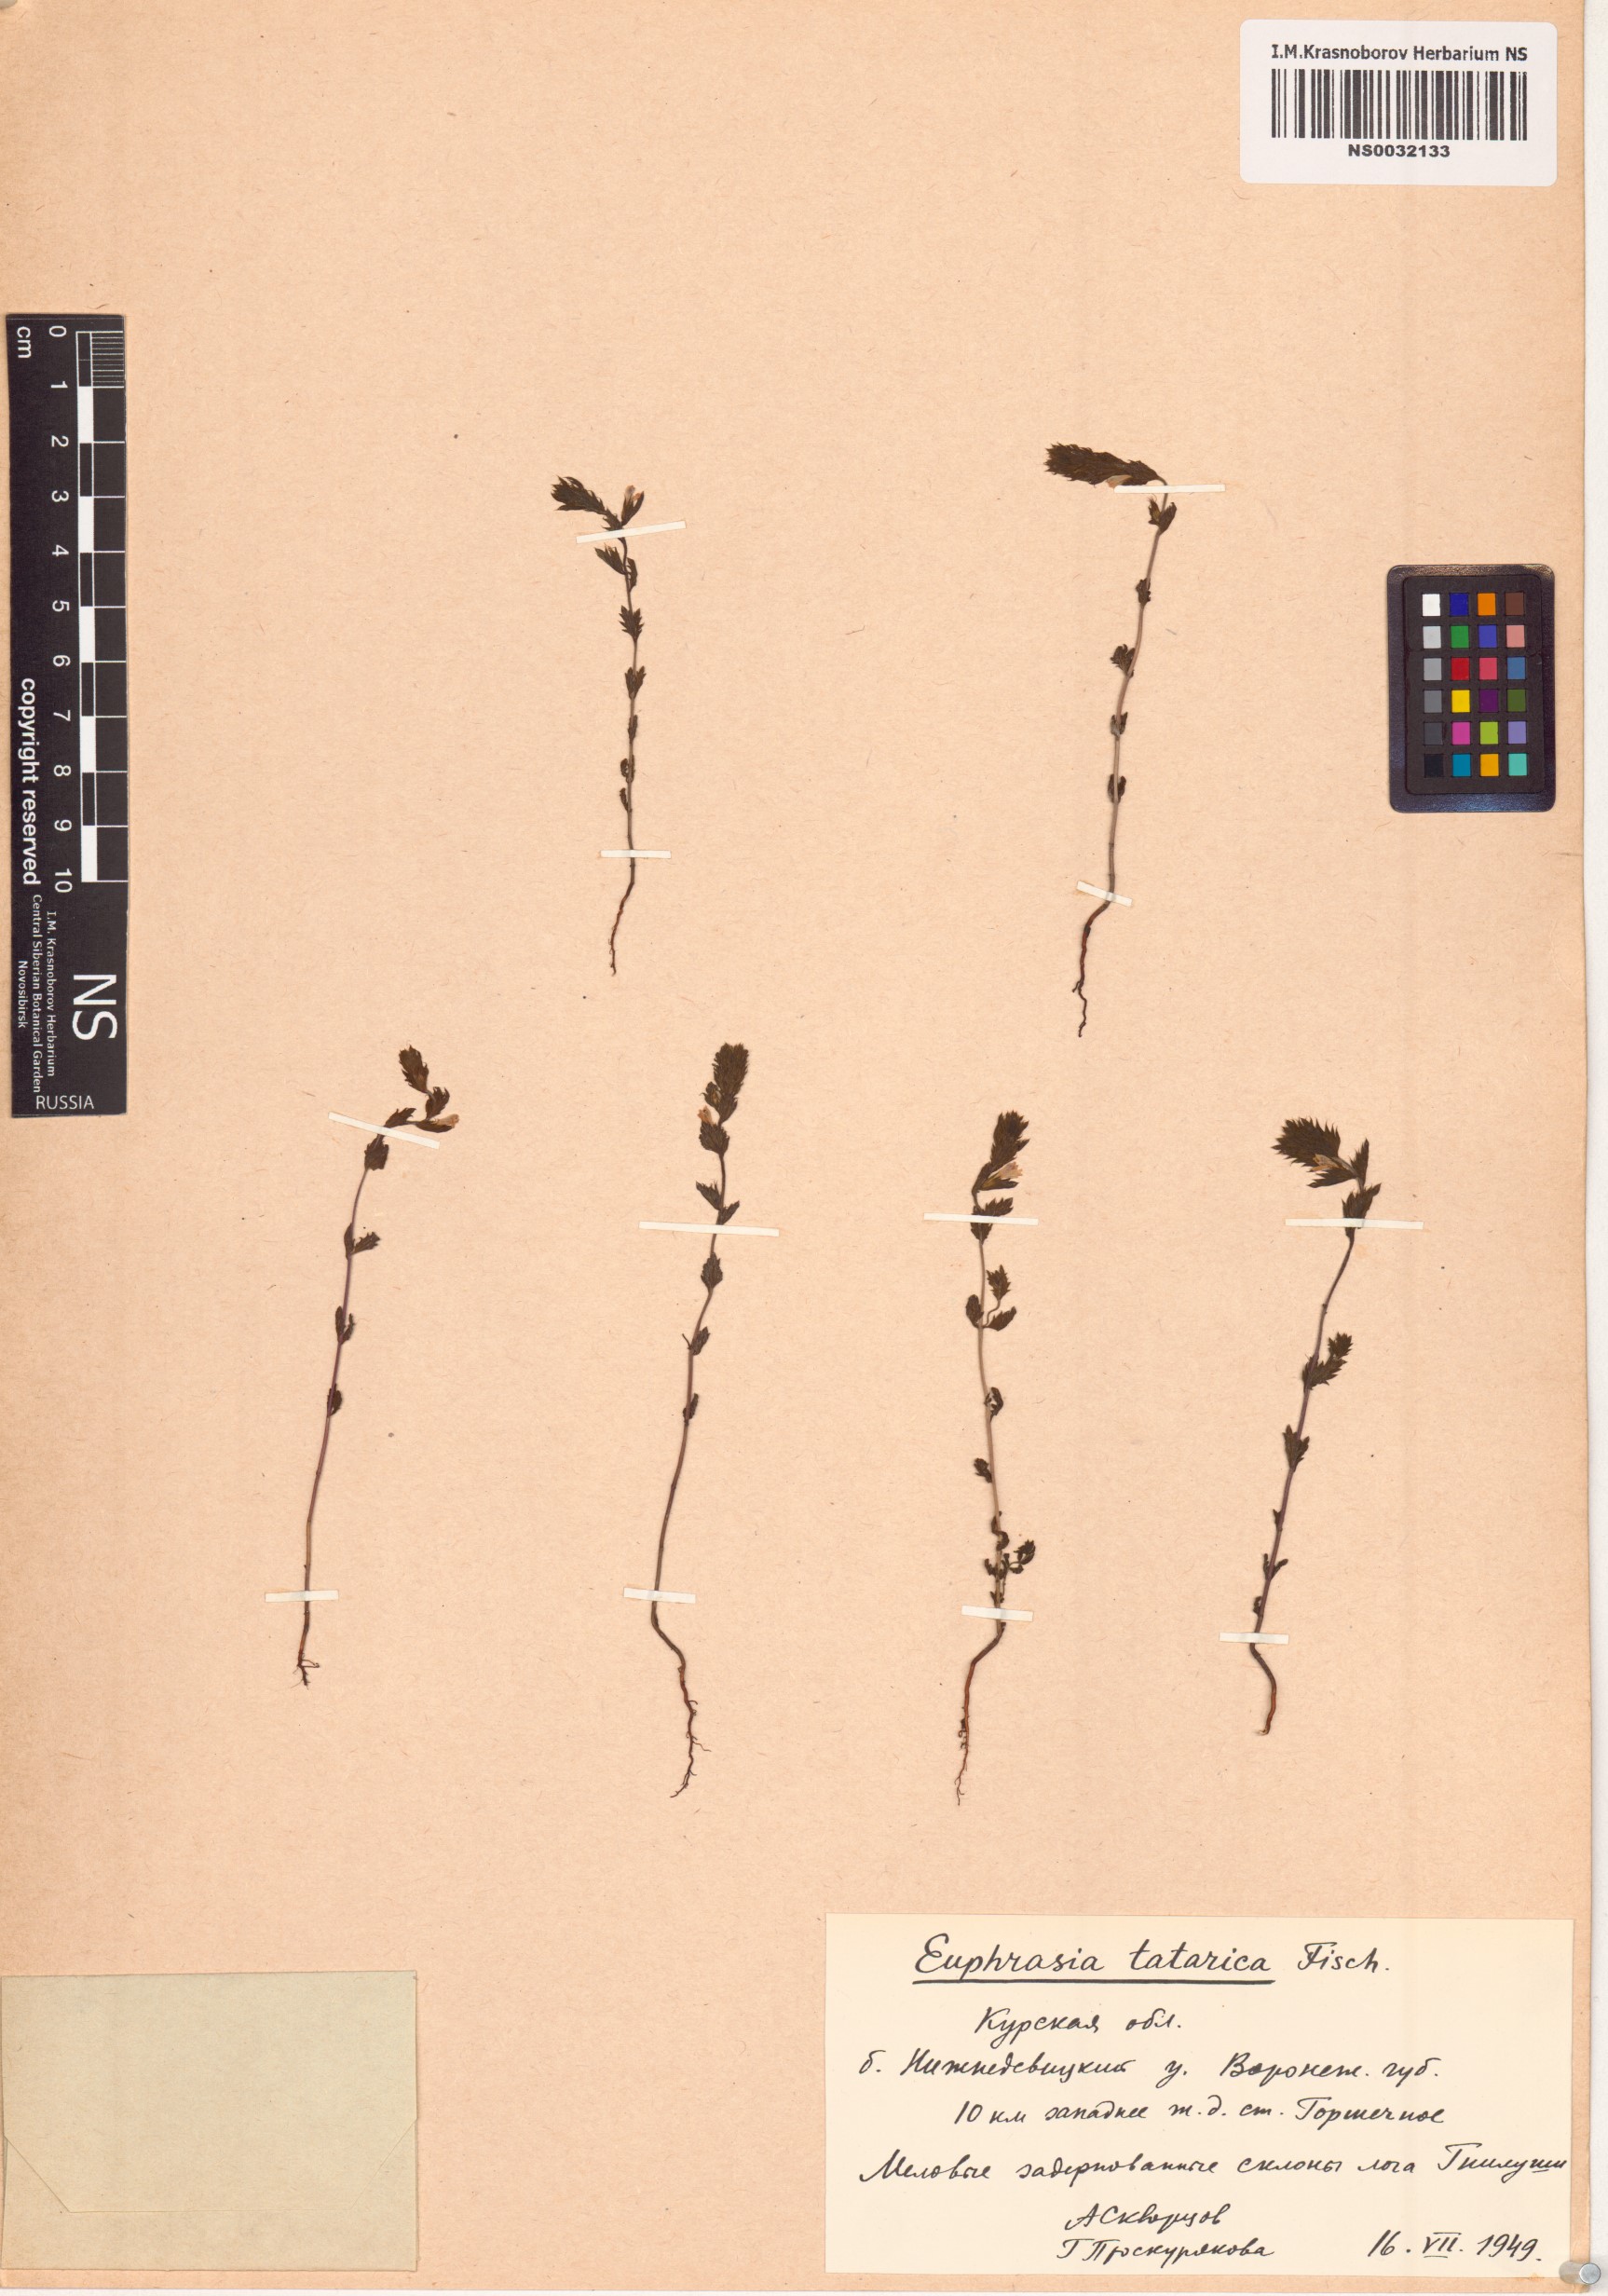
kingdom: Plantae
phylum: Tracheophyta
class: Magnoliopsida
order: Lamiales
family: Orobanchaceae
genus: Euphrasia
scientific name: Euphrasia pectinata
